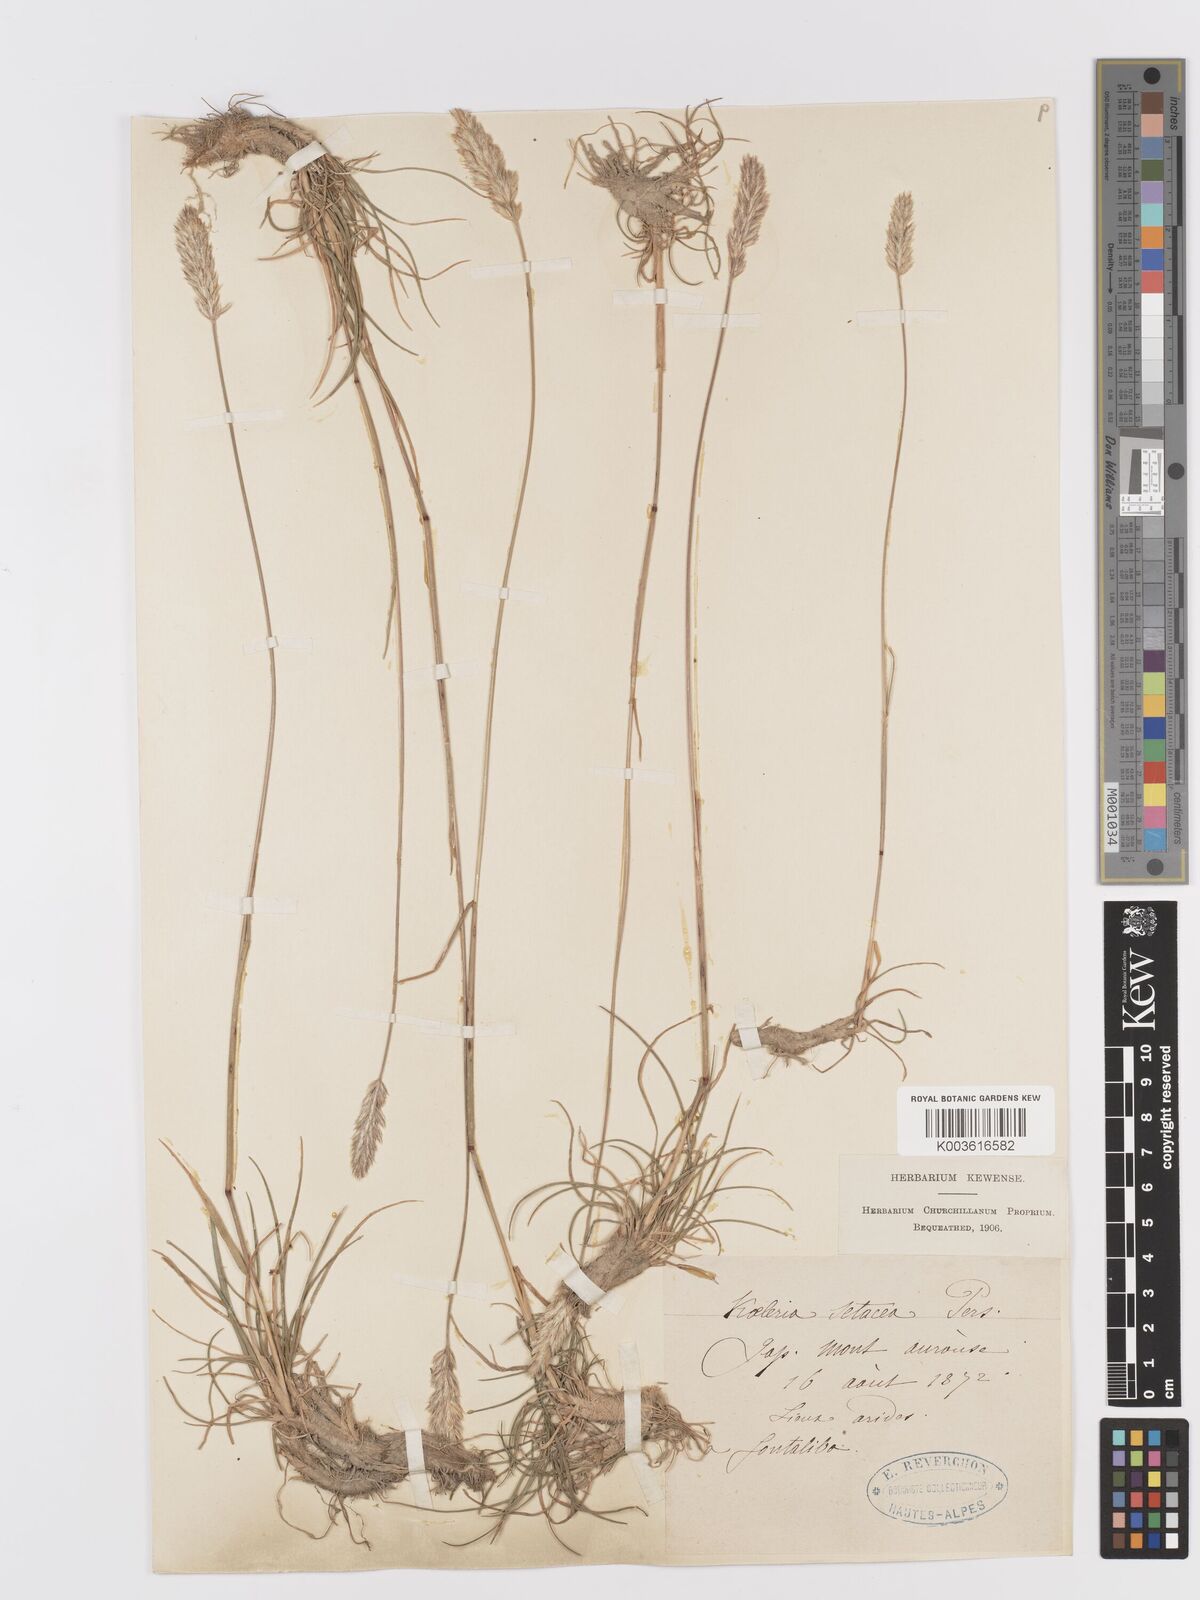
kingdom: Plantae
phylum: Tracheophyta
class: Liliopsida
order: Poales
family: Poaceae
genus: Koeleria
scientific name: Koeleria vallesiana
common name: Somerset hair-grass
